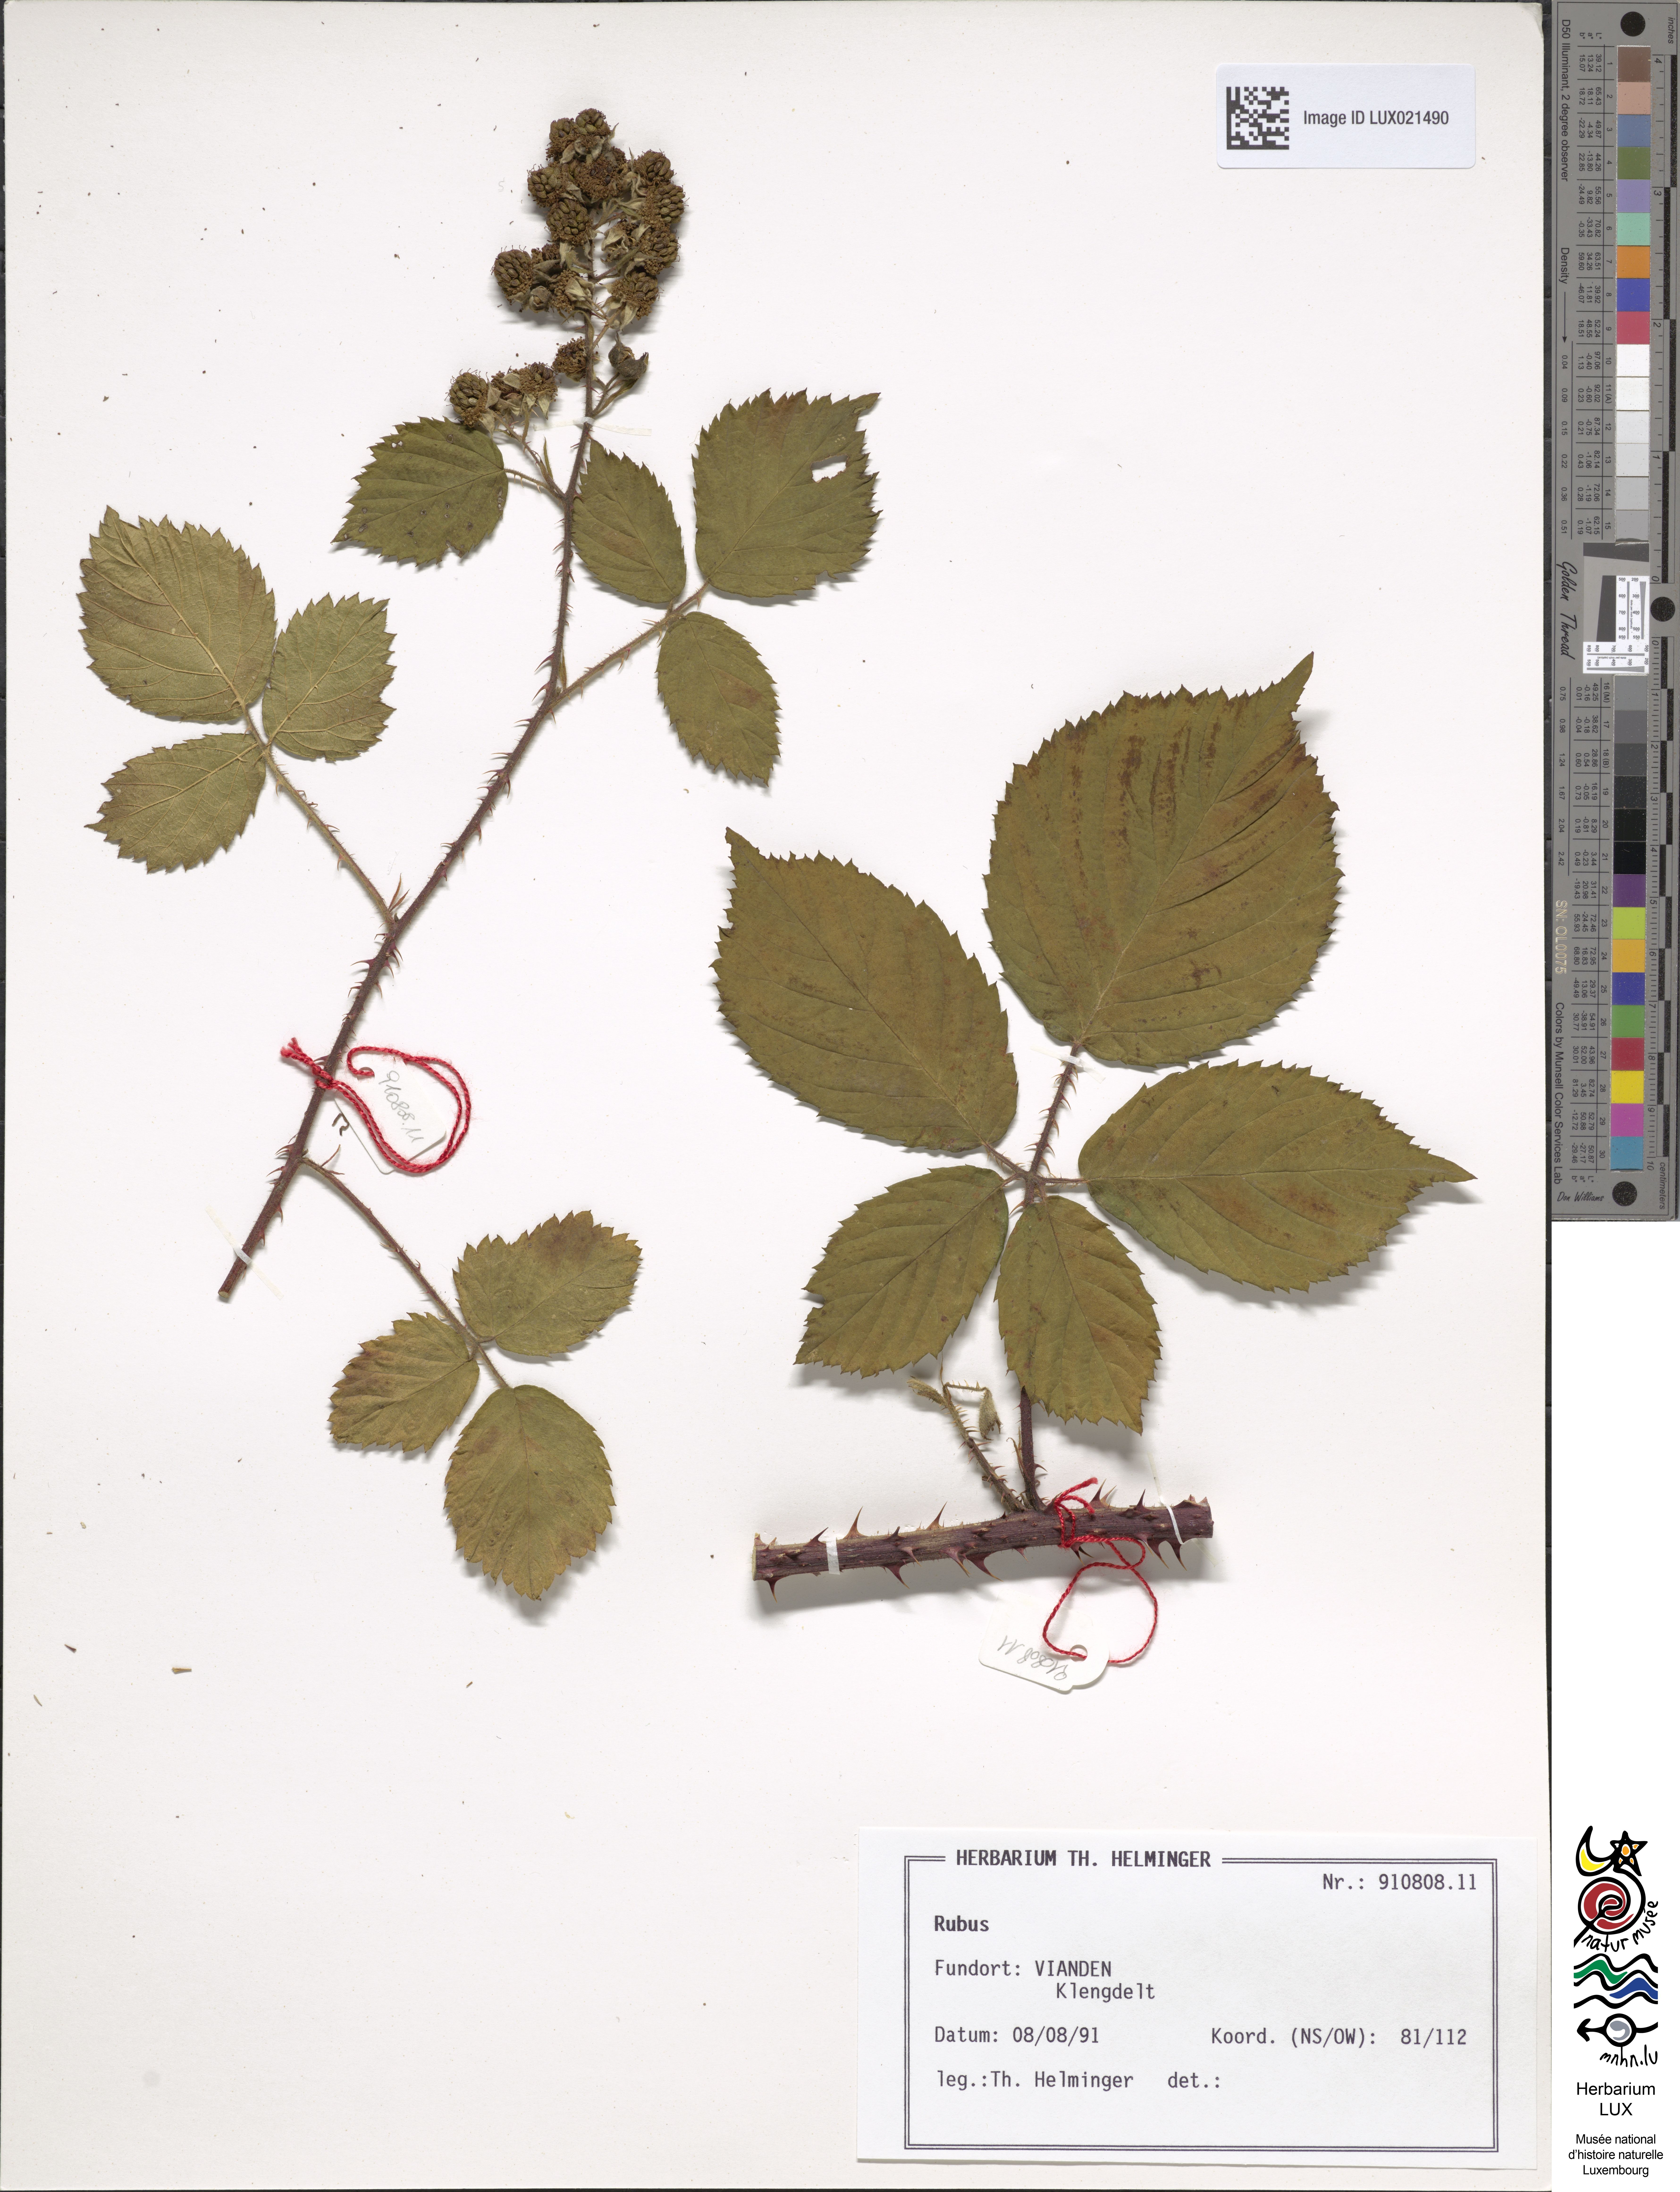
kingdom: Plantae
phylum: Tracheophyta
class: Magnoliopsida
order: Rosales
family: Rosaceae
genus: Rubus
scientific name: Rubus
